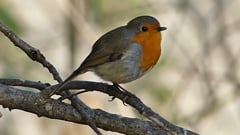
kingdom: Animalia
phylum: Chordata
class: Aves
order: Passeriformes
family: Muscicapidae
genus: Erithacus
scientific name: Erithacus rubecula
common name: European robin
